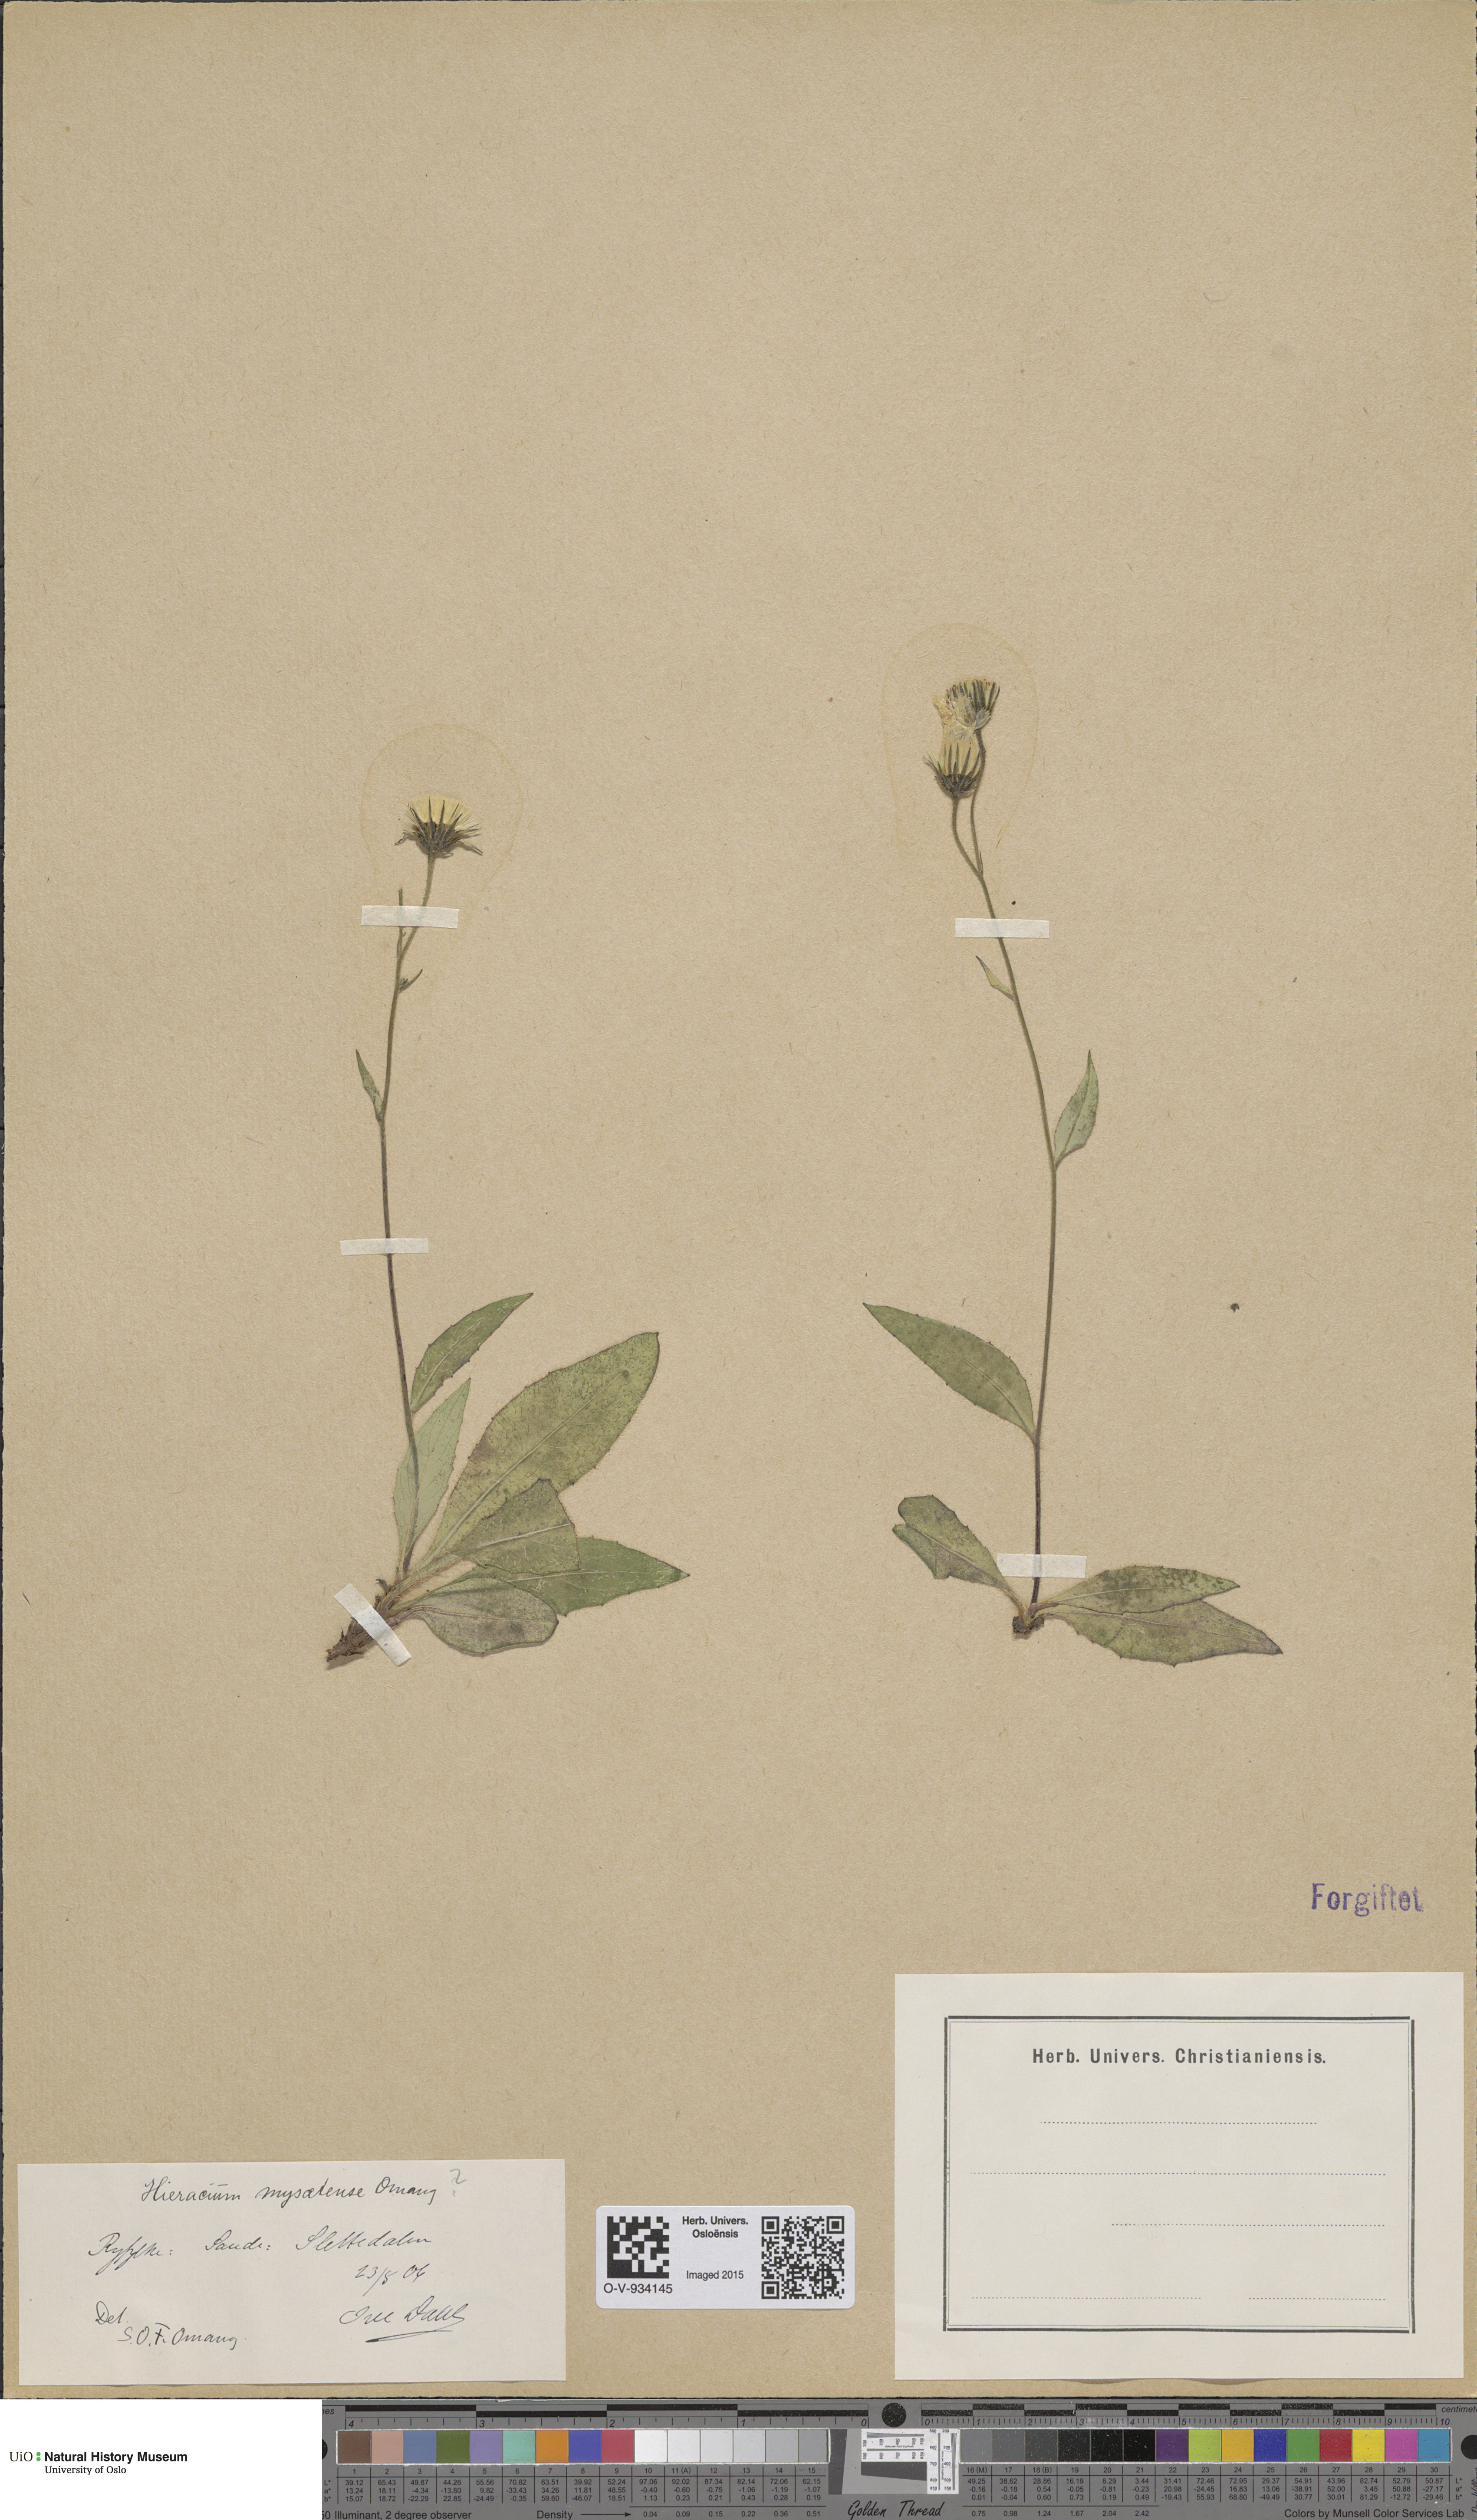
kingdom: Plantae
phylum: Tracheophyta
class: Magnoliopsida
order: Asterales
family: Asteraceae
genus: Hieracium
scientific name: Hieracium saxifragum
